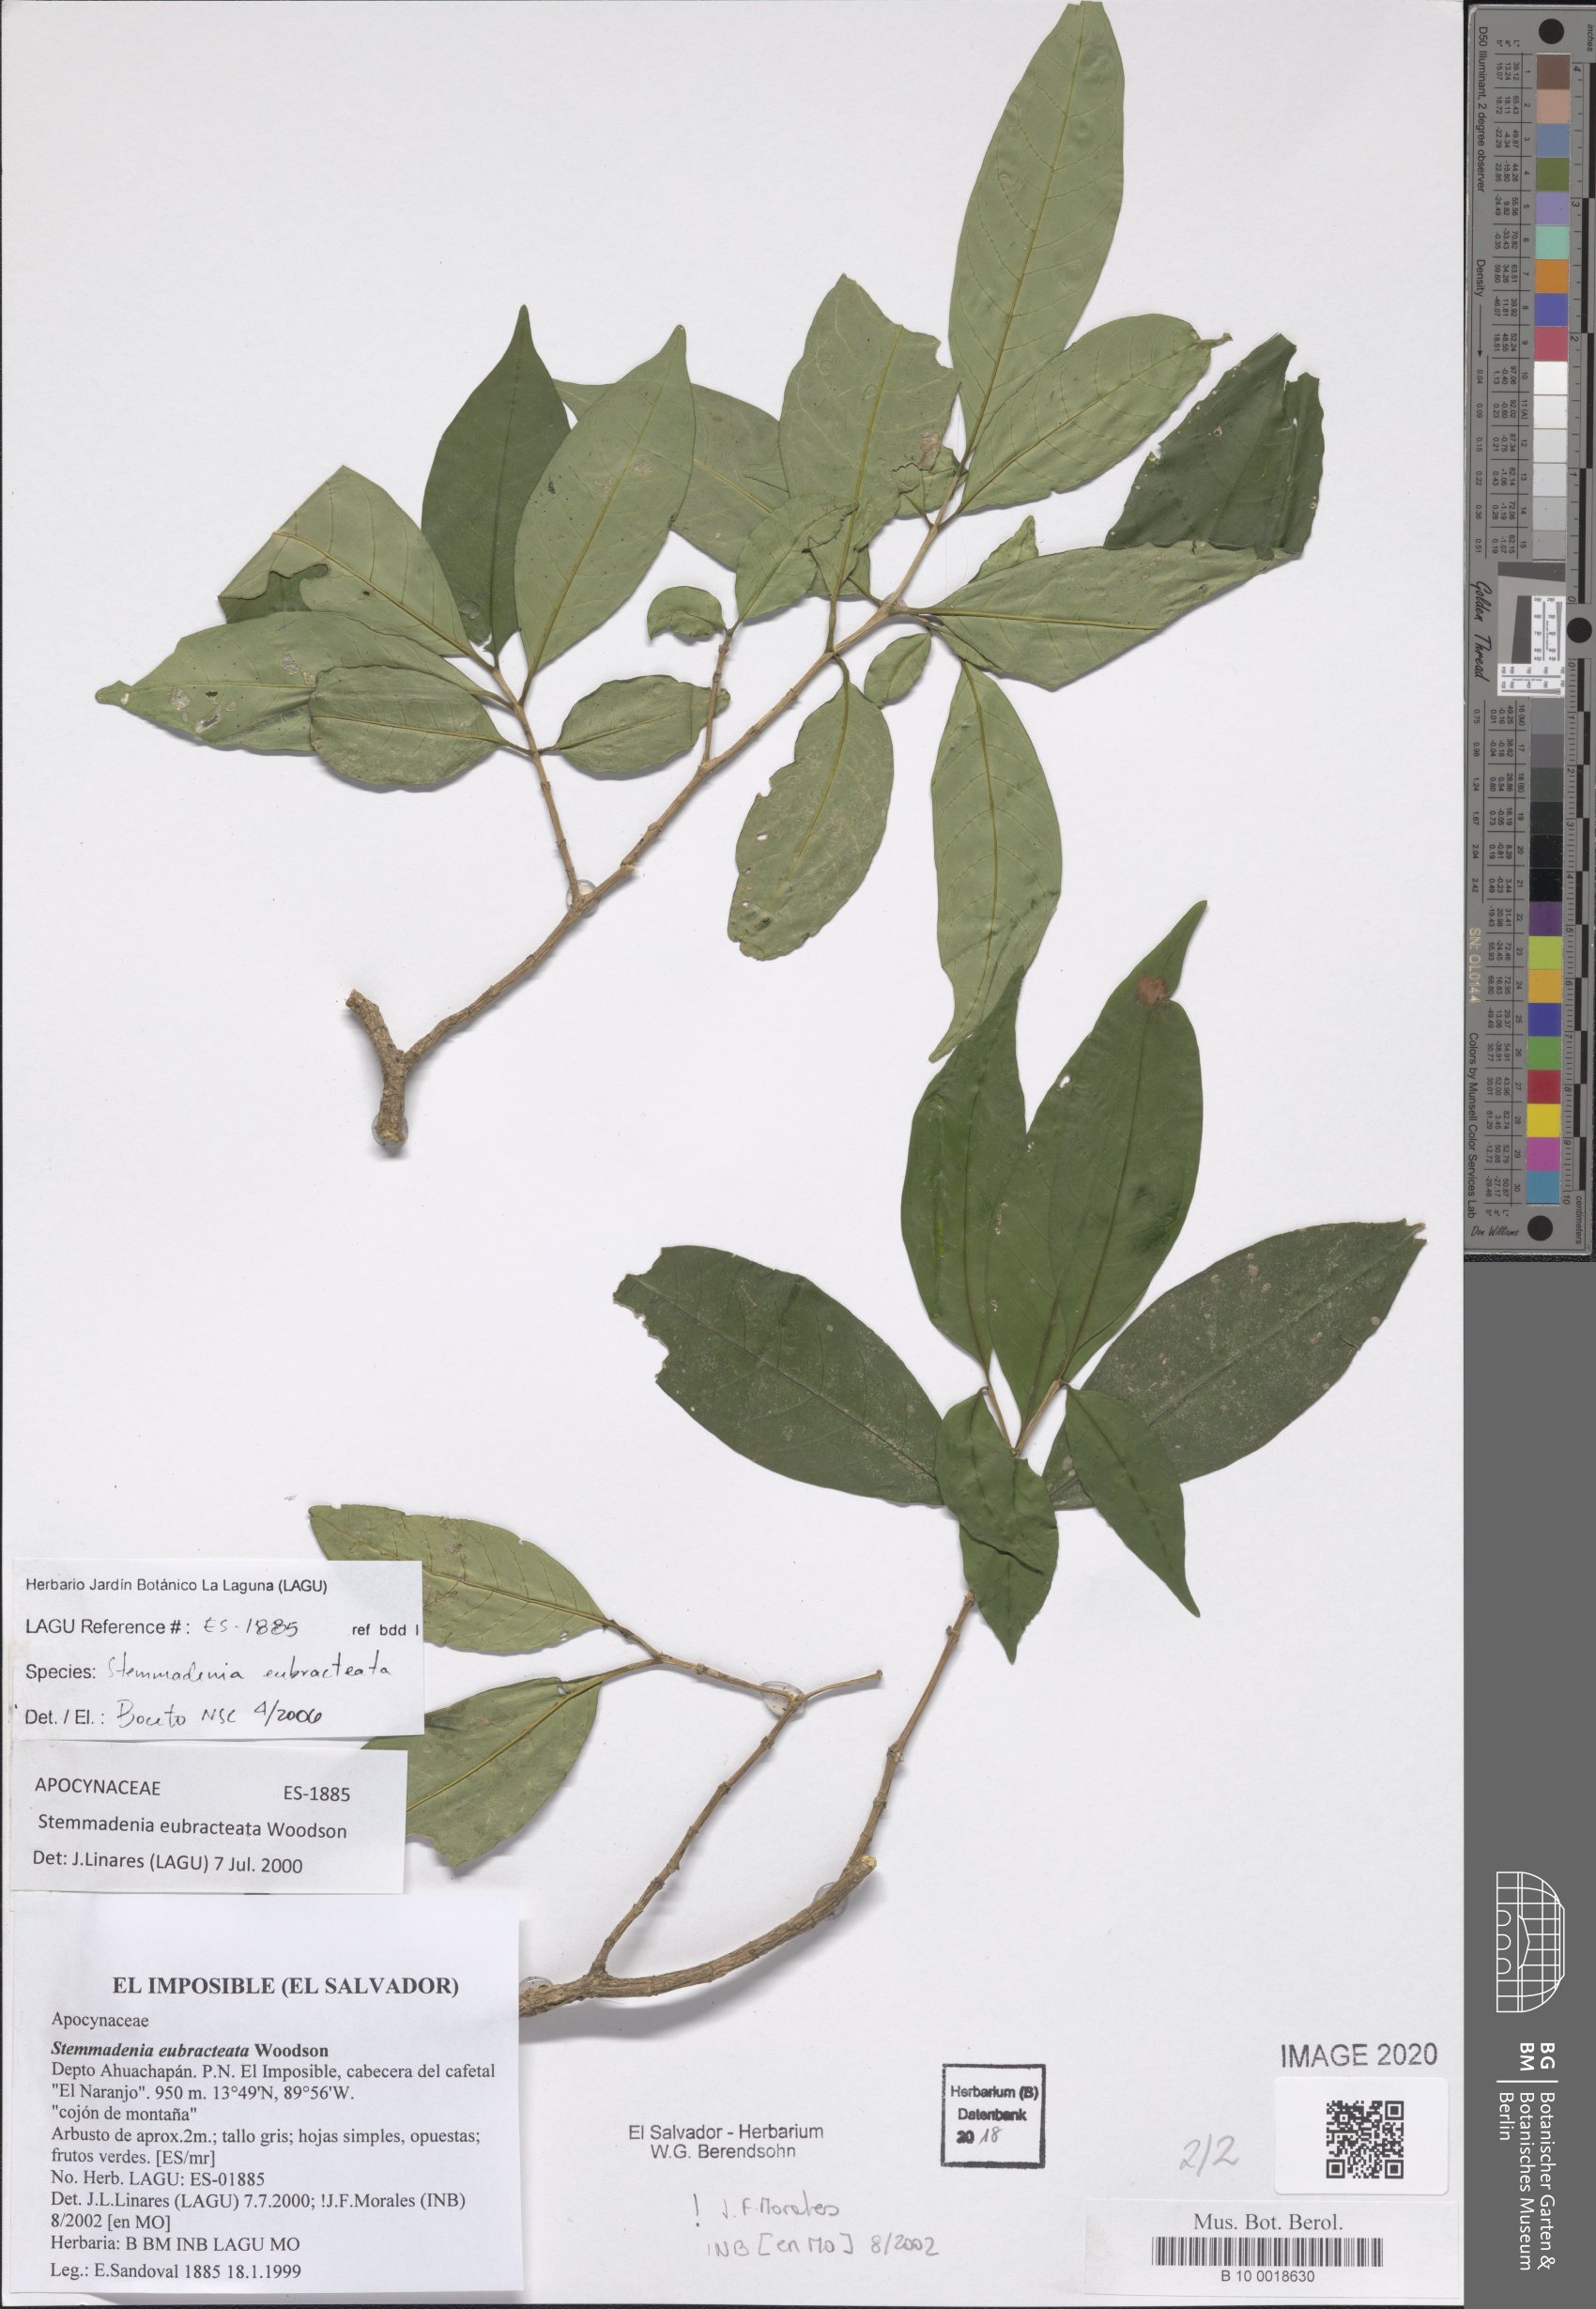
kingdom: Plantae
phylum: Tracheophyta
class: Magnoliopsida
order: Gentianales
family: Apocynaceae
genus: Tabernaemontana
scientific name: Tabernaemontana eubracteata
